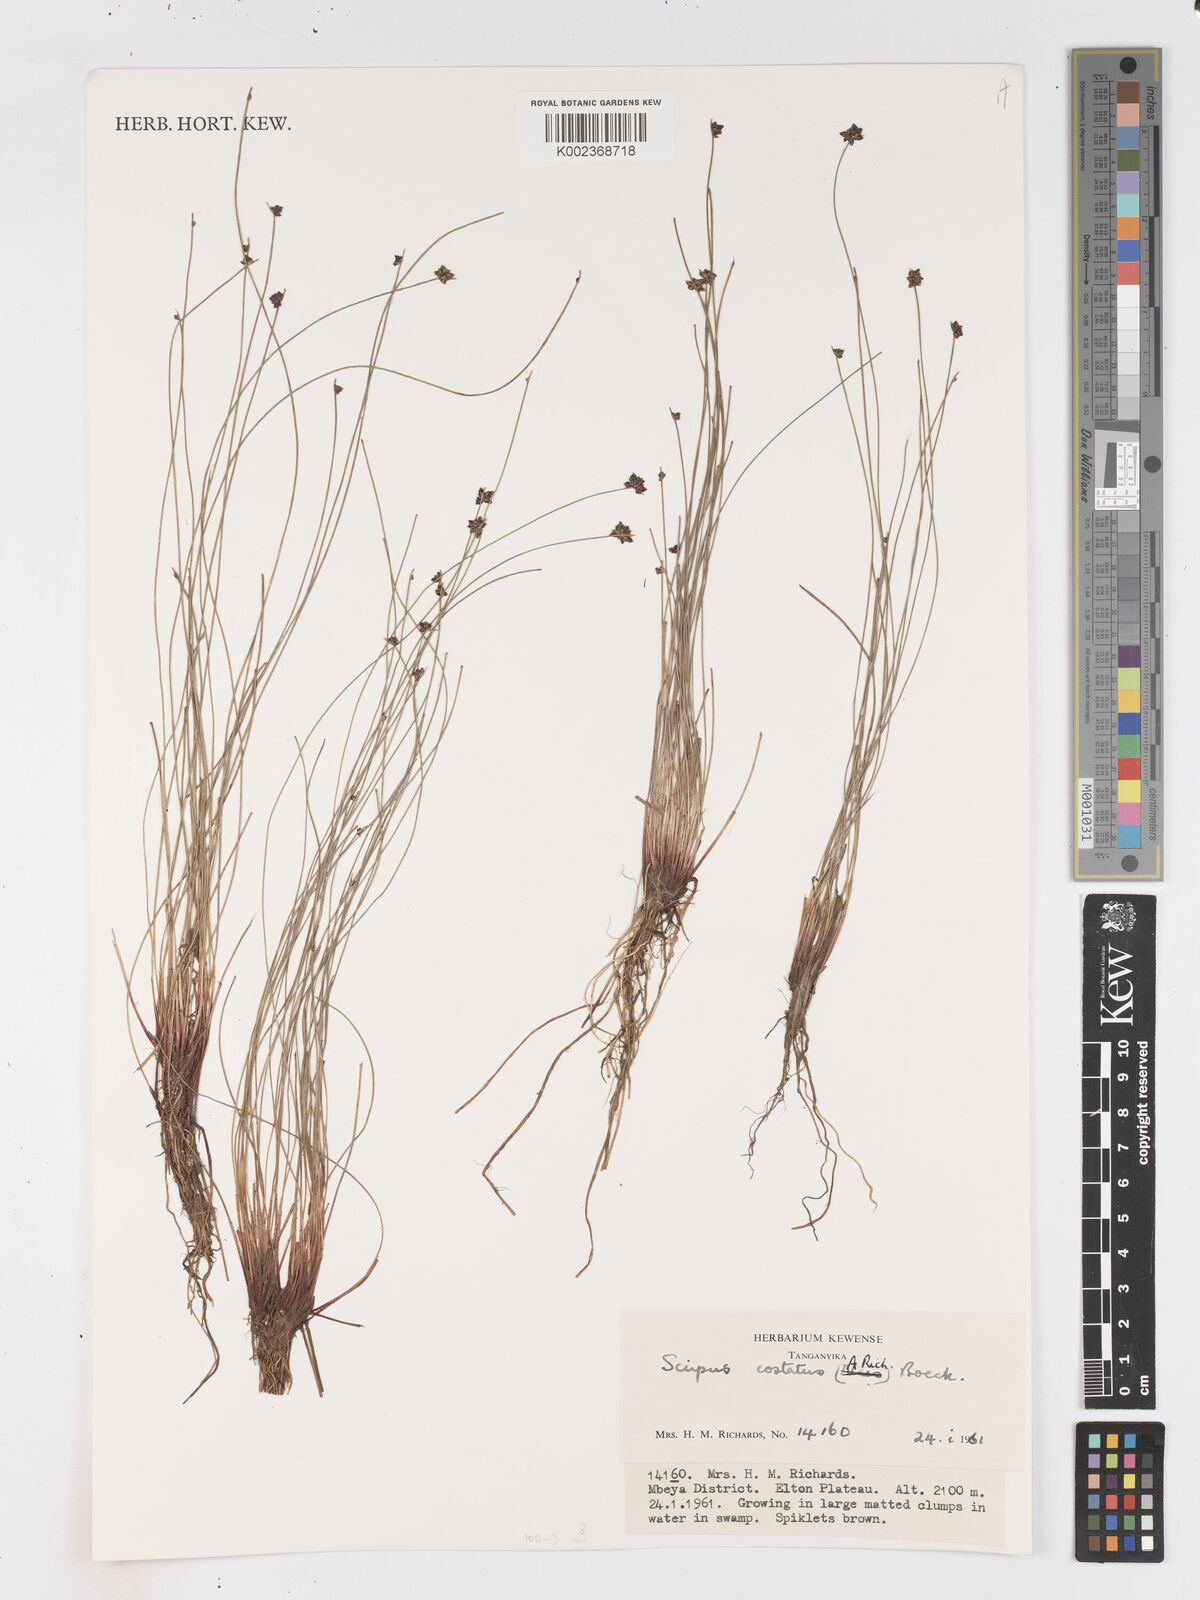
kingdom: Plantae
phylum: Tracheophyta
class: Liliopsida
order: Poales
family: Cyperaceae
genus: Isolepis
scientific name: Isolepis costata
